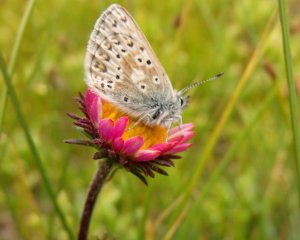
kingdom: Animalia
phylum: Arthropoda
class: Insecta
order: Lepidoptera
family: Lycaenidae
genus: Cupido
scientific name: Cupido podarce
